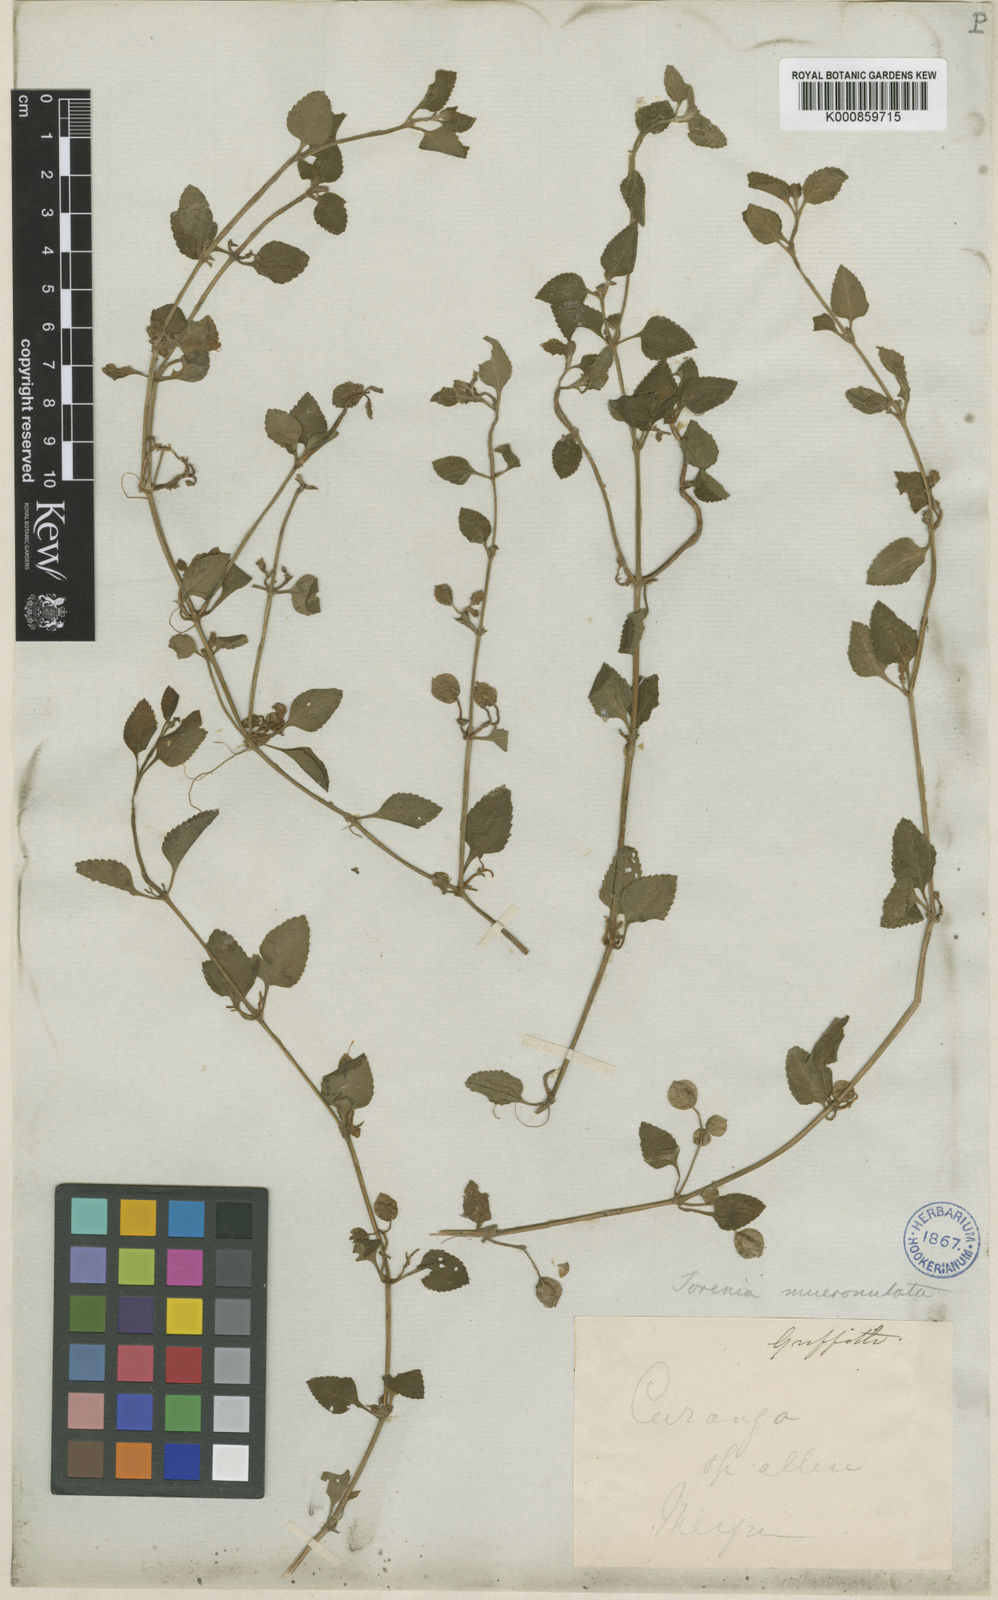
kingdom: Plantae
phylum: Tracheophyta
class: Magnoliopsida
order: Lamiales
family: Linderniaceae
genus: Legazpia
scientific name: Legazpia polygonoides
